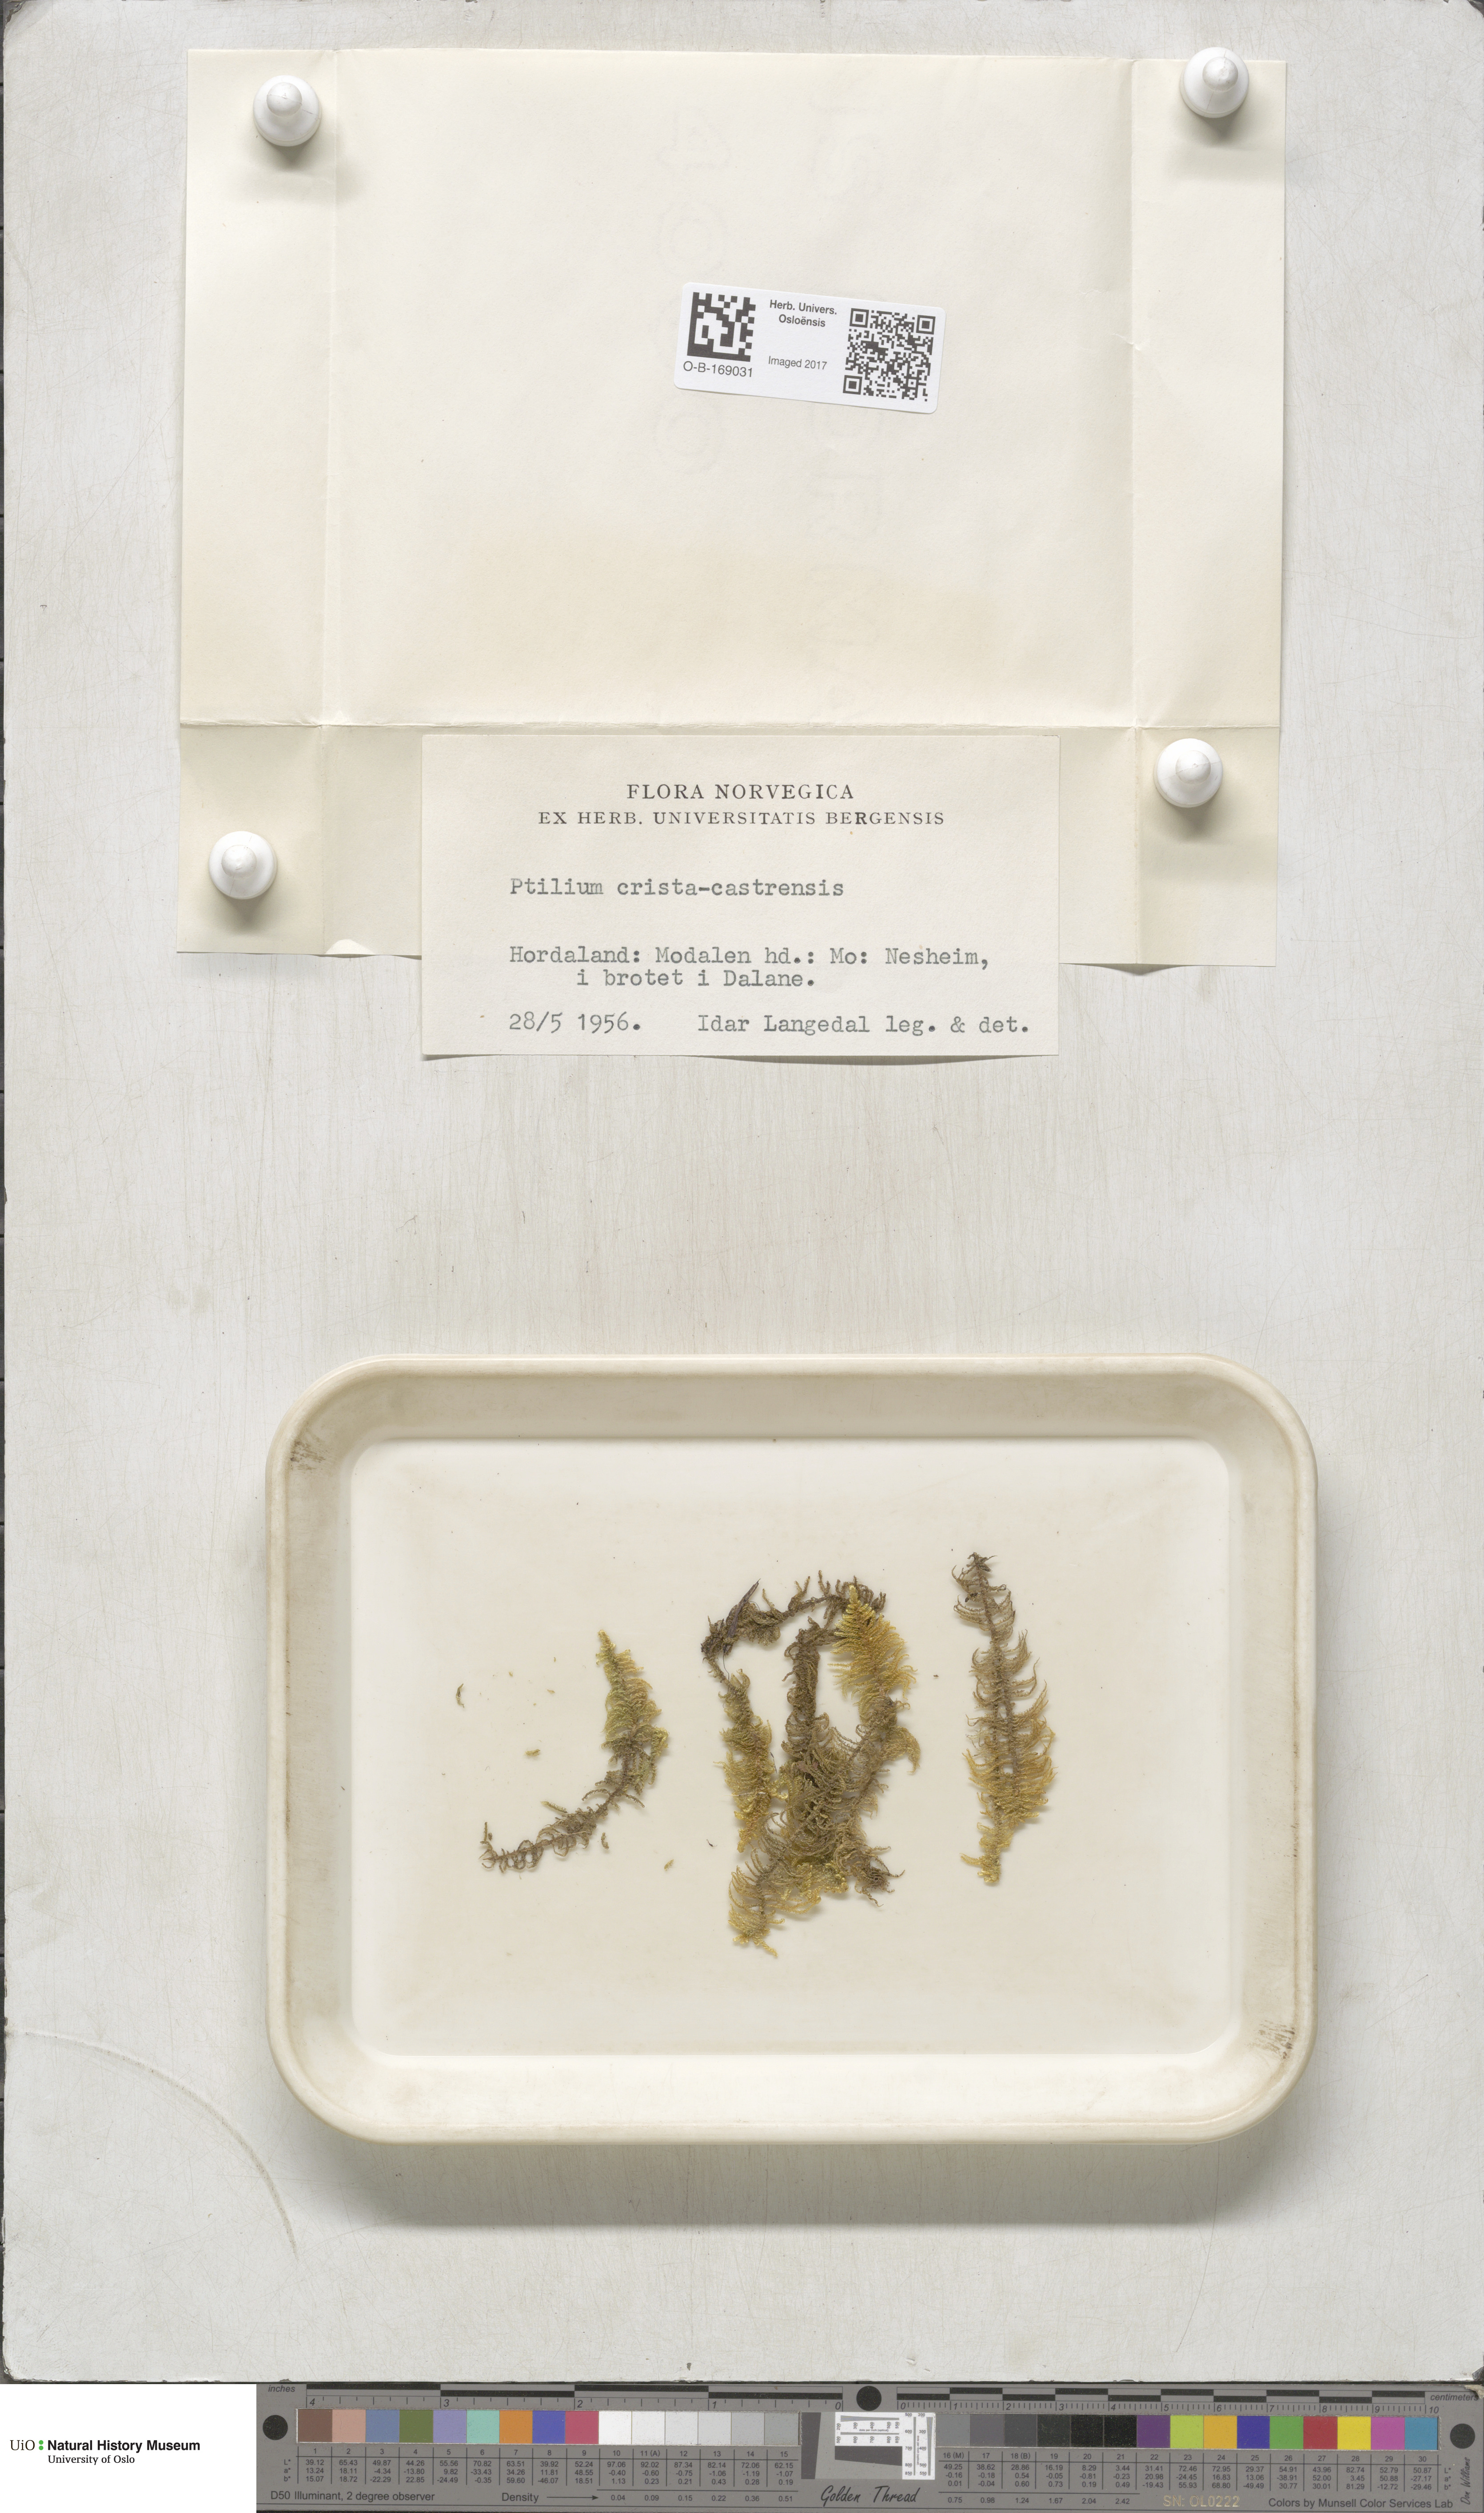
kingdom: Plantae
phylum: Bryophyta
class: Bryopsida
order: Hypnales
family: Pylaisiaceae
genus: Ptilium
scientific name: Ptilium crista-castrensis
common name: Knight's plume moss
